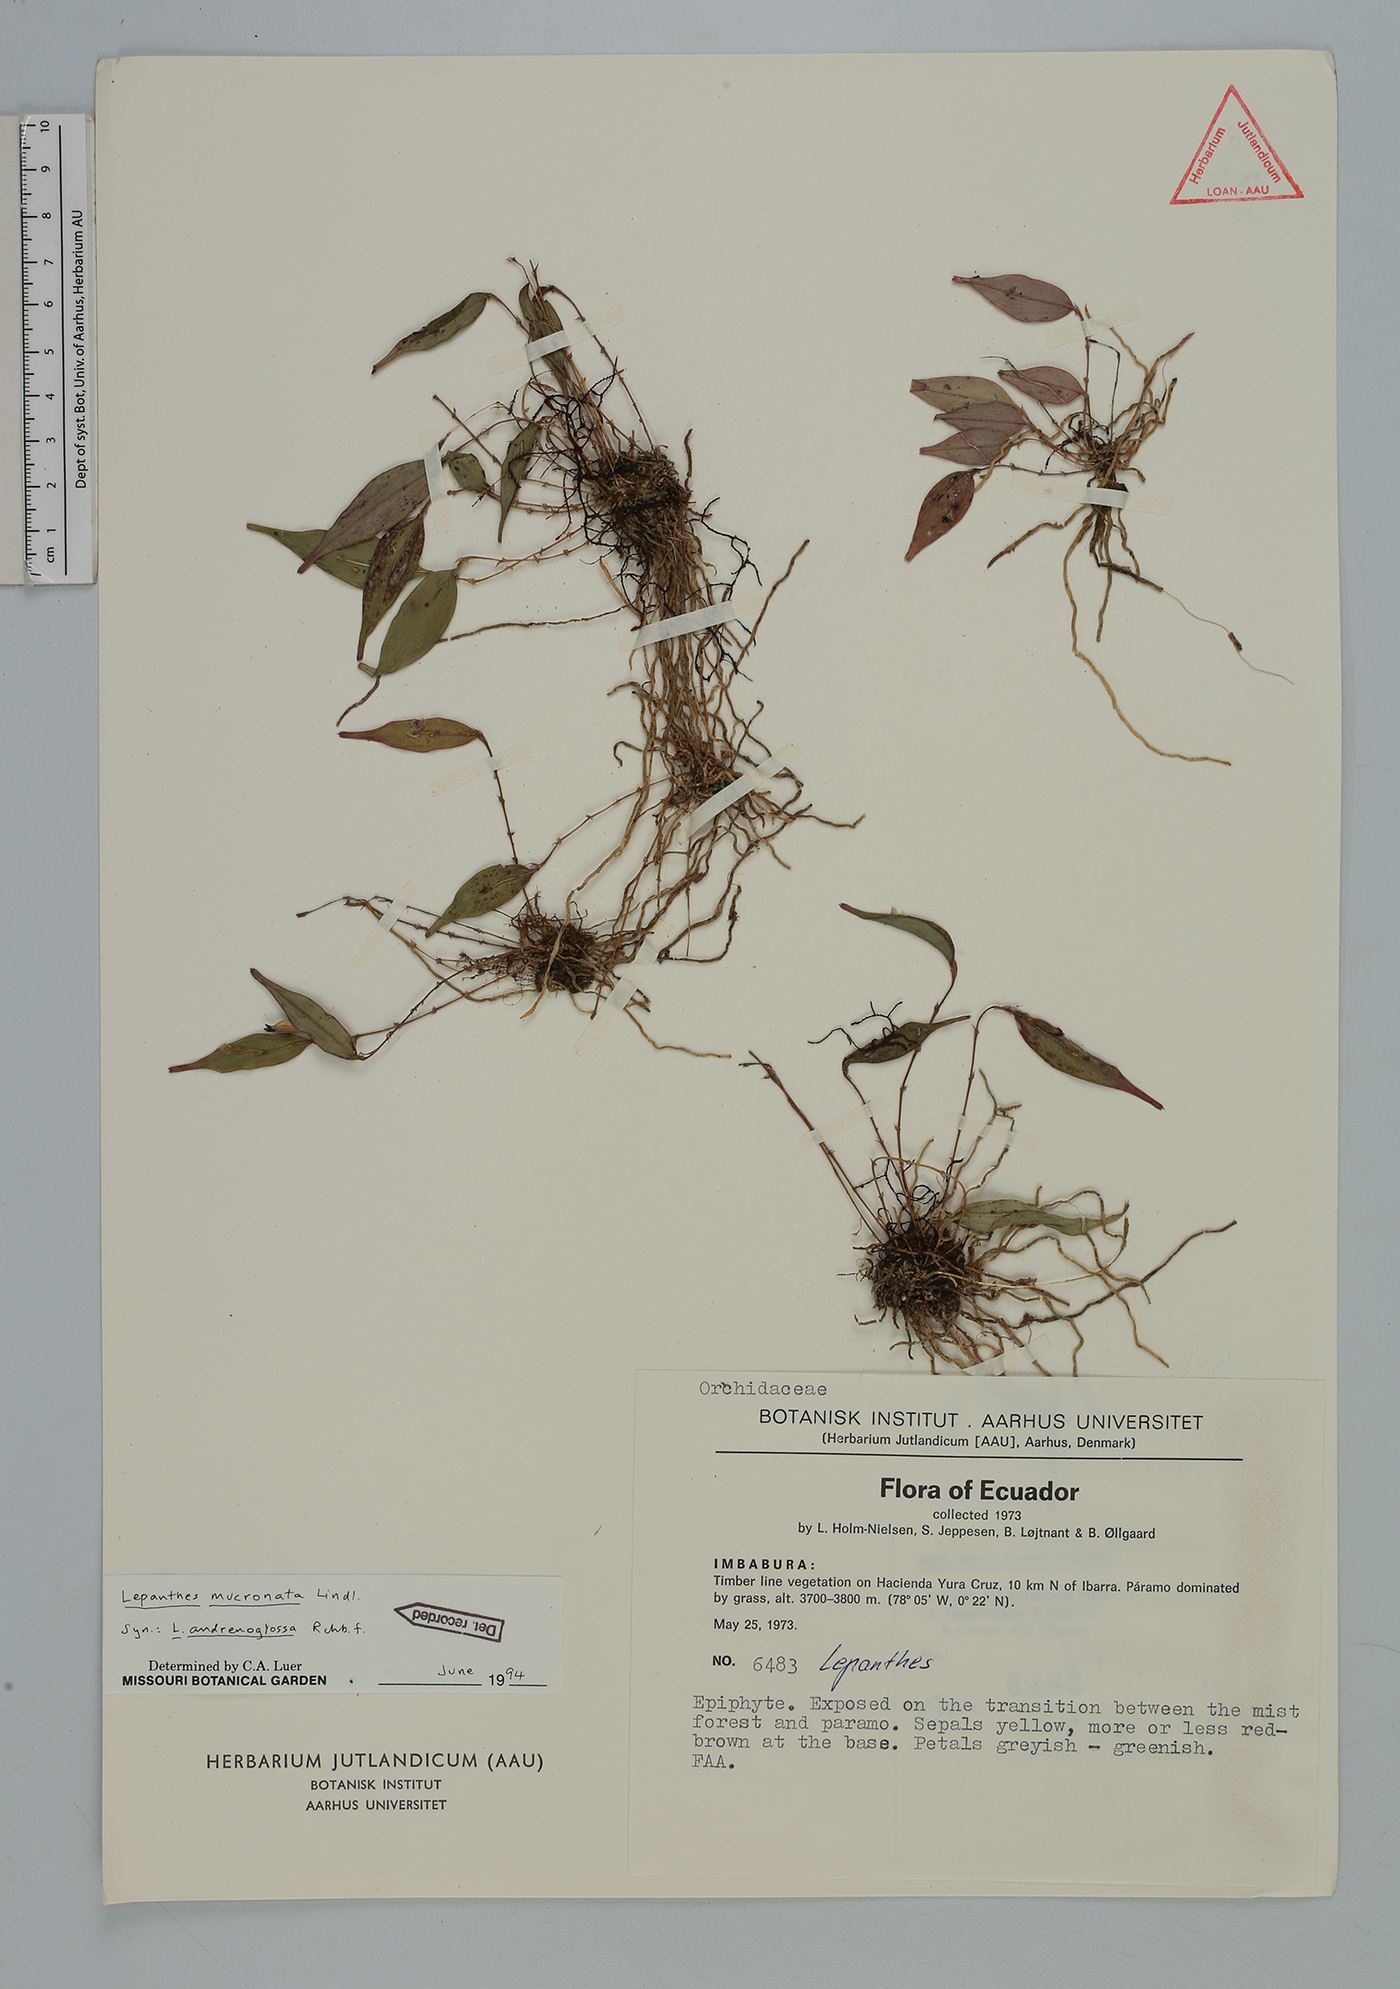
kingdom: Plantae
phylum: Tracheophyta
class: Liliopsida
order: Asparagales
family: Orchidaceae
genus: Lepanthes
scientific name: Lepanthes mucronata
